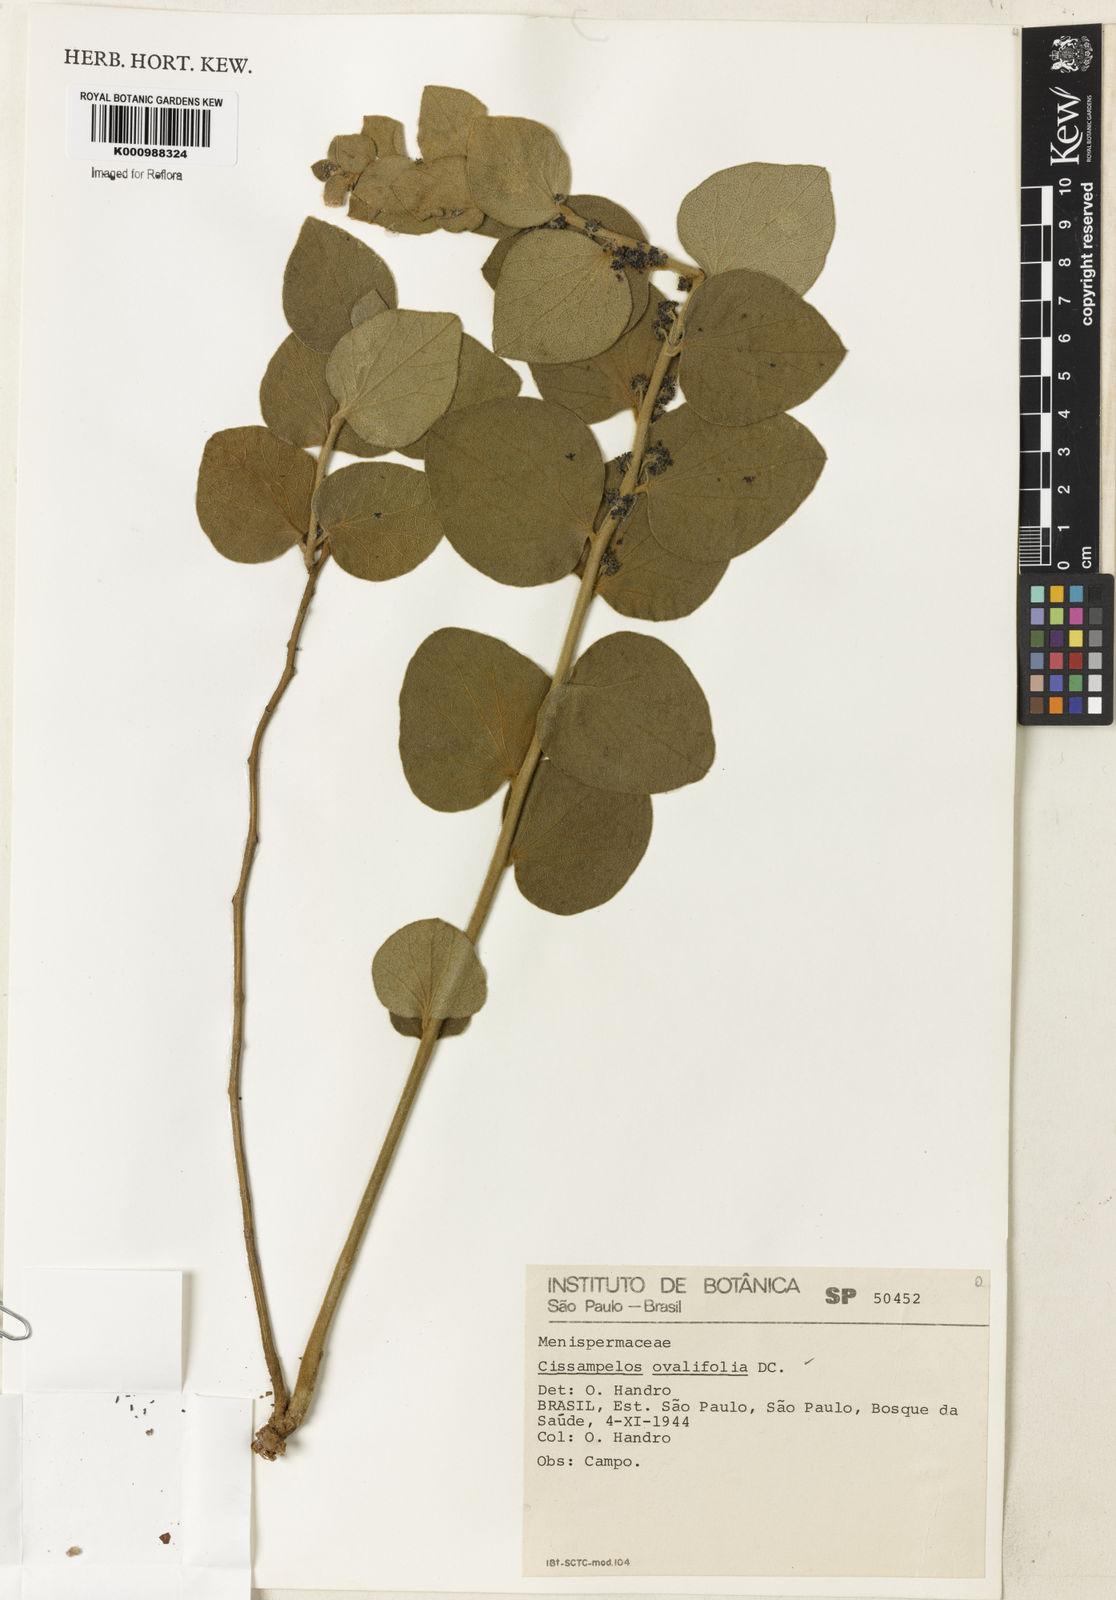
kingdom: Plantae
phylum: Tracheophyta
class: Magnoliopsida
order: Ranunculales
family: Menispermaceae
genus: Cissampelos
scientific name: Cissampelos ovalifolia
